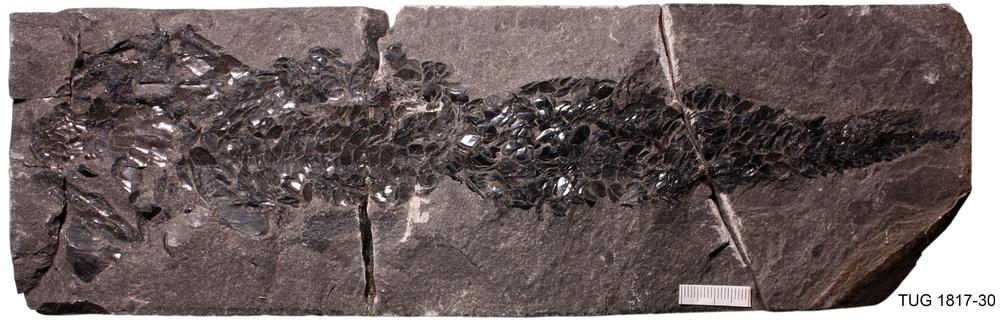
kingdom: Animalia
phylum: Chordata
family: Osteolepididae
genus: Osteolepis
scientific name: Osteolepis macrolepidotus
